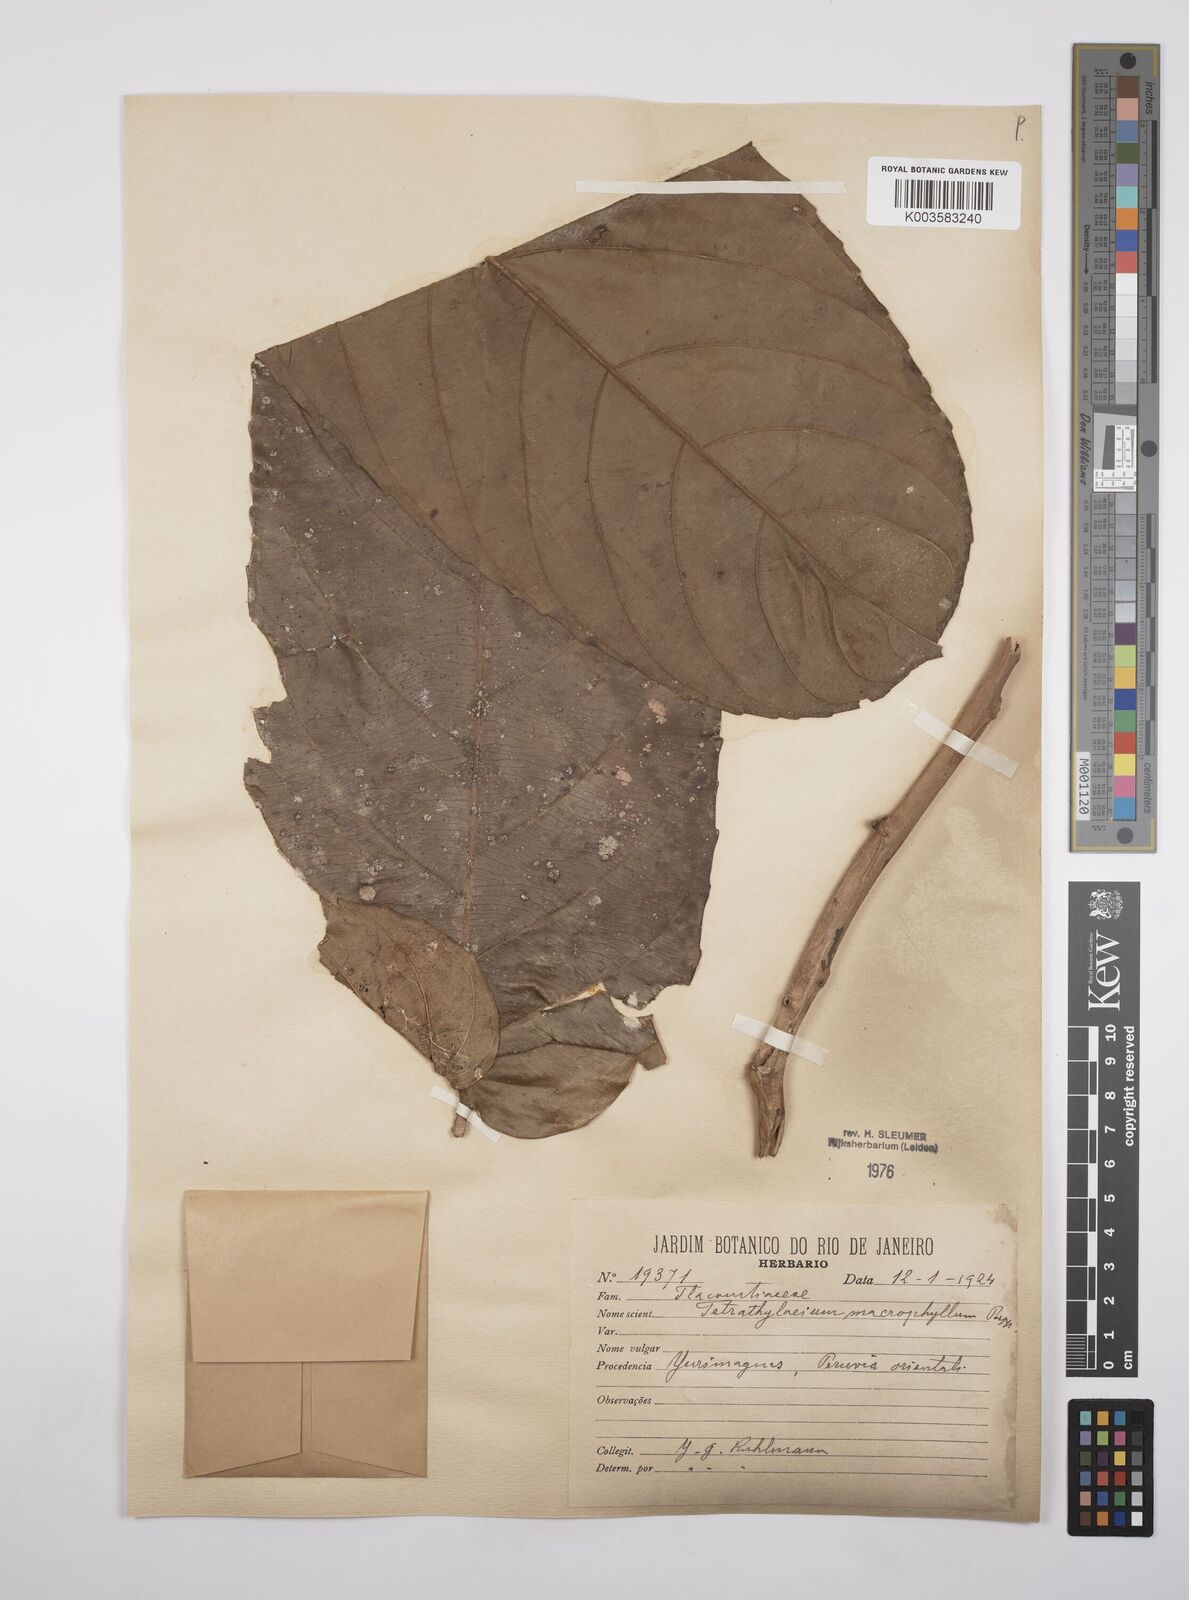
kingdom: Plantae
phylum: Tracheophyta
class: Magnoliopsida
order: Malpighiales
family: Salicaceae
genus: Tetrathylacium
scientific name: Tetrathylacium macrophyllum
